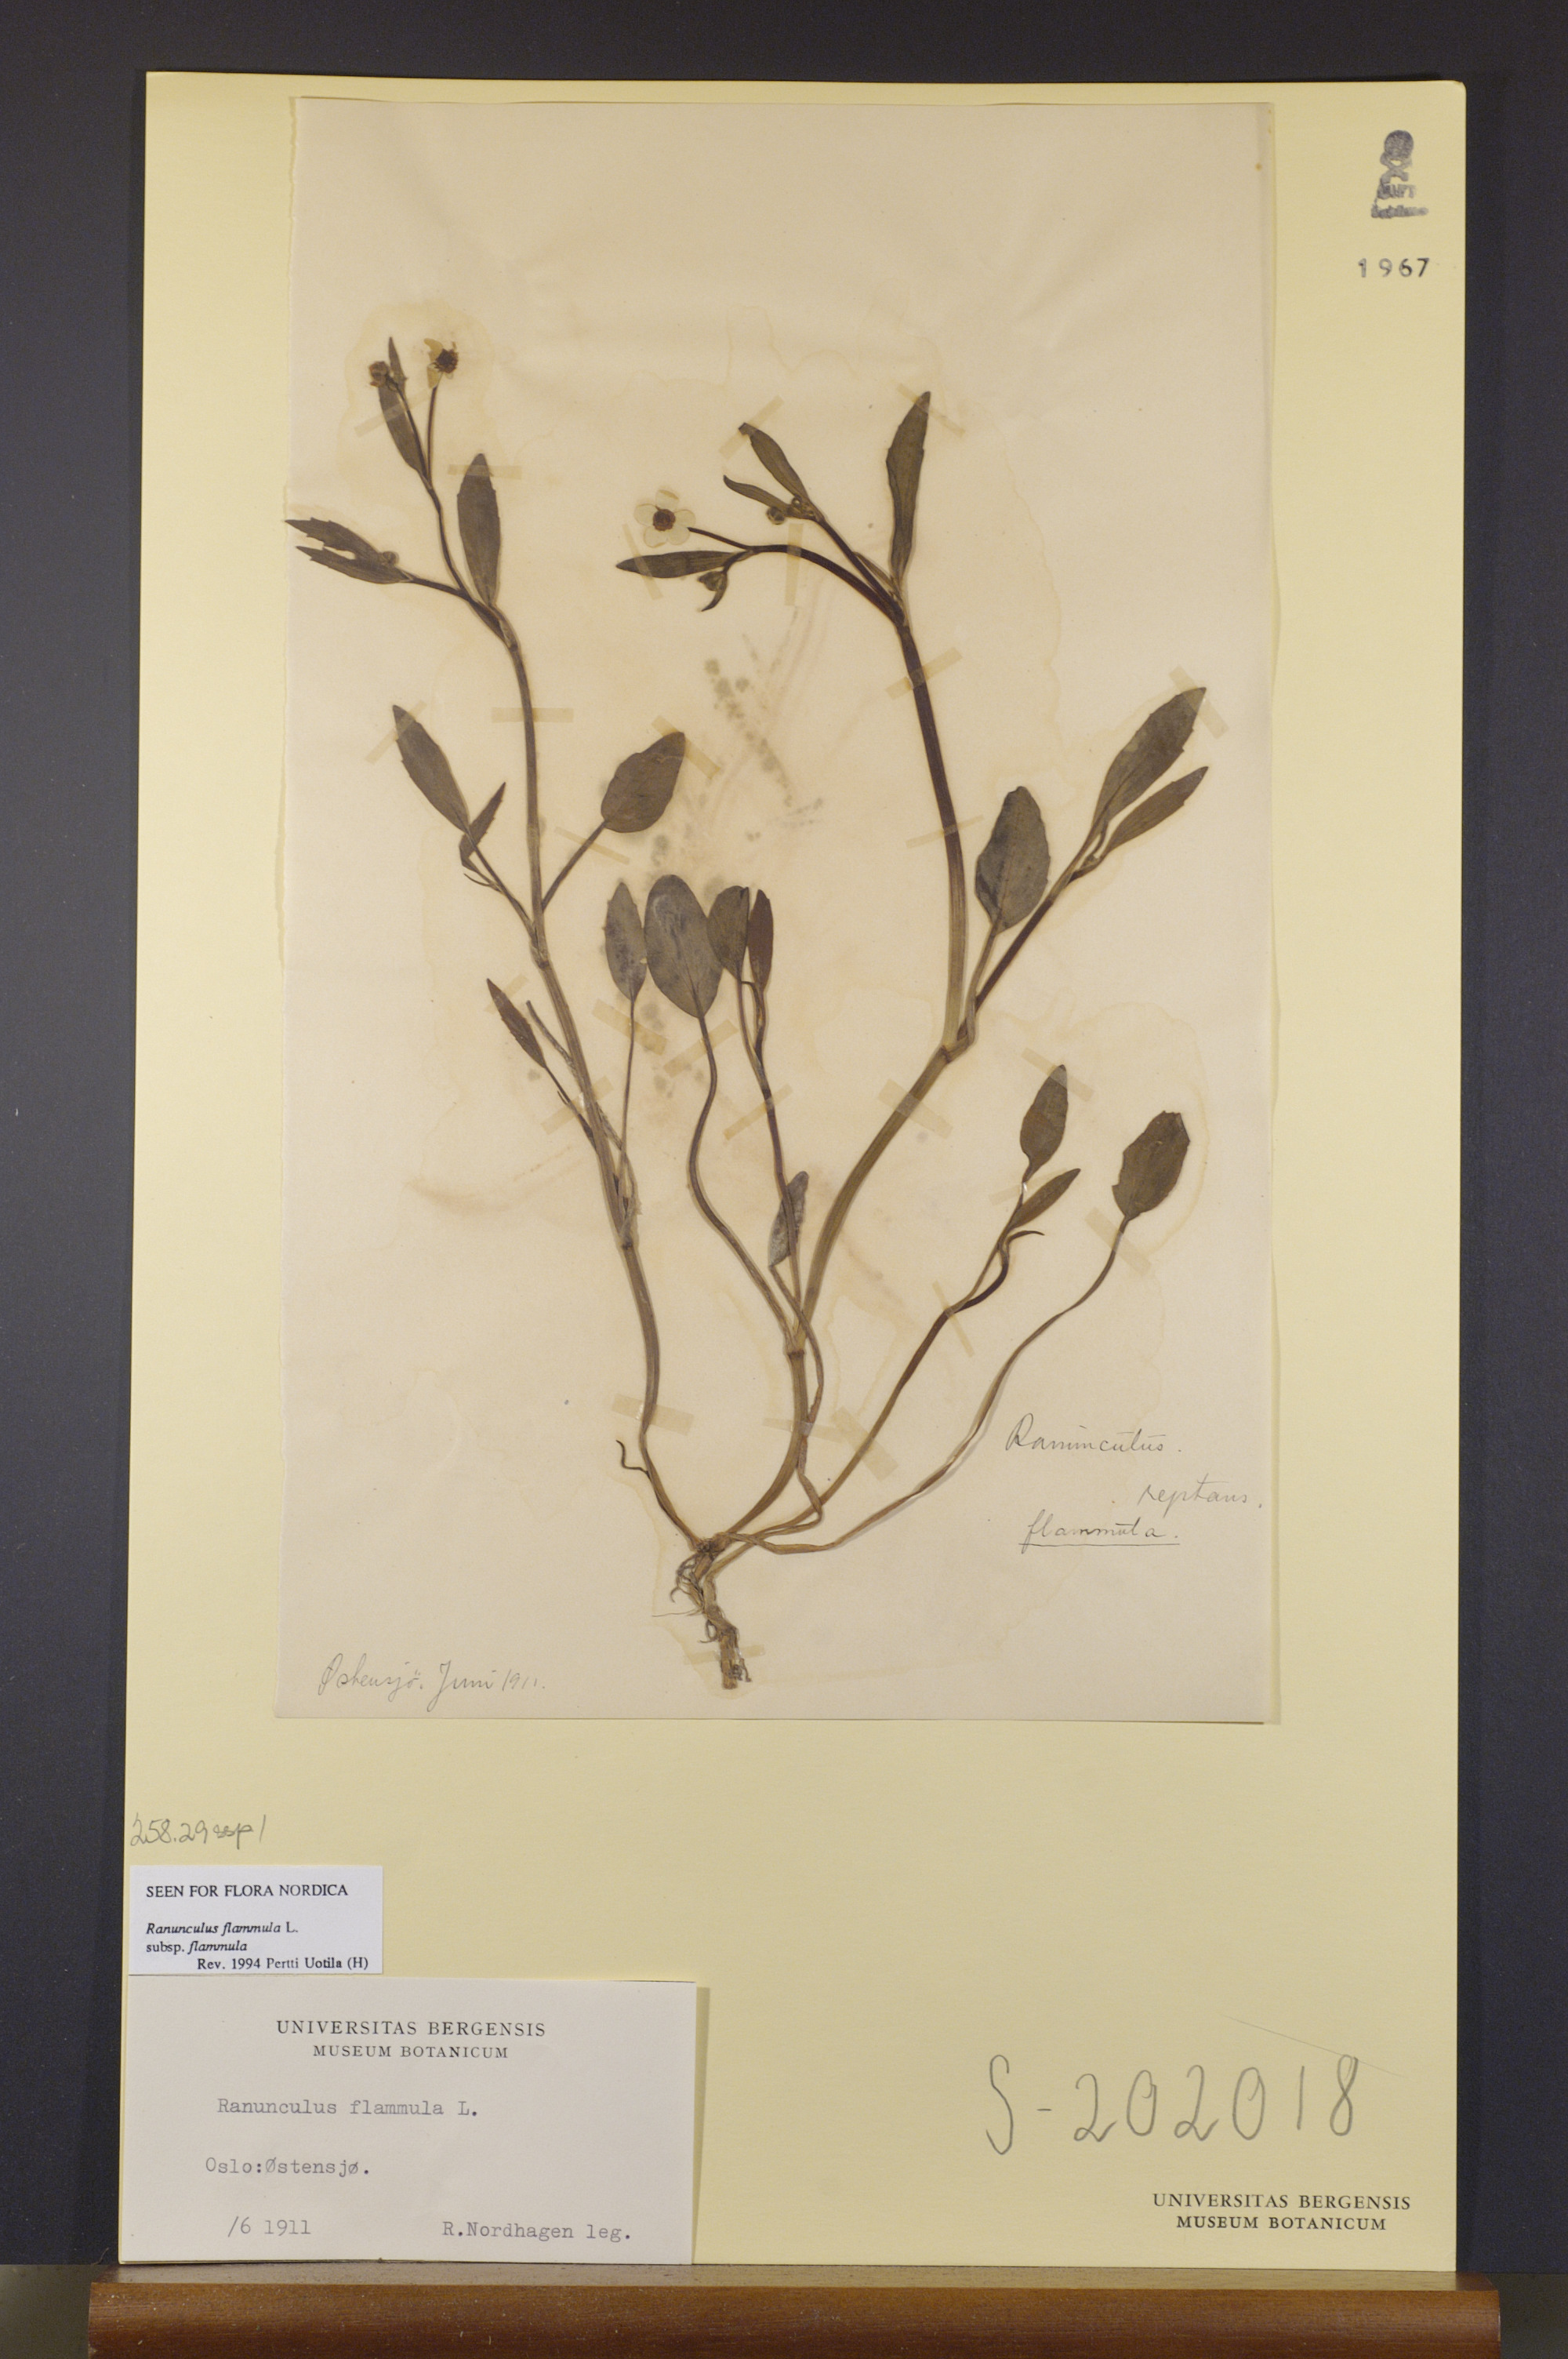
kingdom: Plantae
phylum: Tracheophyta
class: Magnoliopsida
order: Ranunculales
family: Ranunculaceae
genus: Ranunculus
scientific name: Ranunculus flammula
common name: Lesser spearwort
